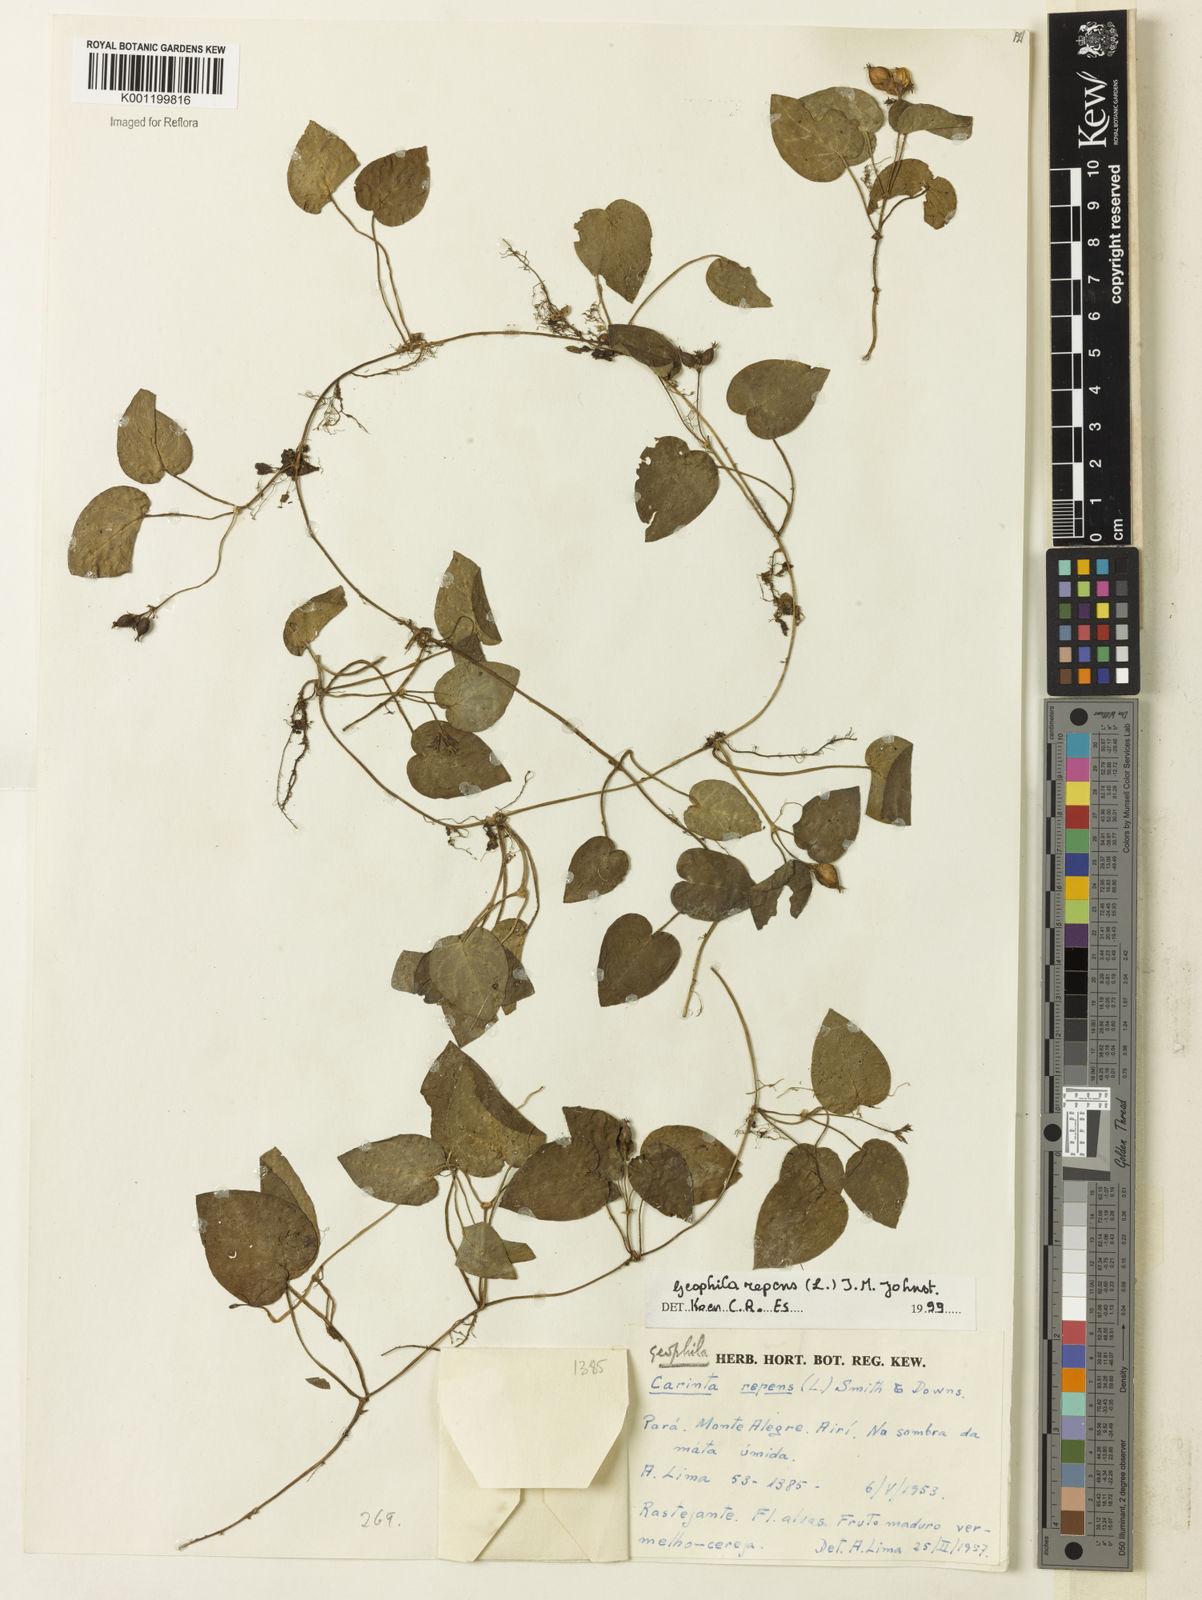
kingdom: Plantae
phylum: Tracheophyta
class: Magnoliopsida
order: Gentianales
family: Rubiaceae
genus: Geophila
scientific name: Geophila repens
